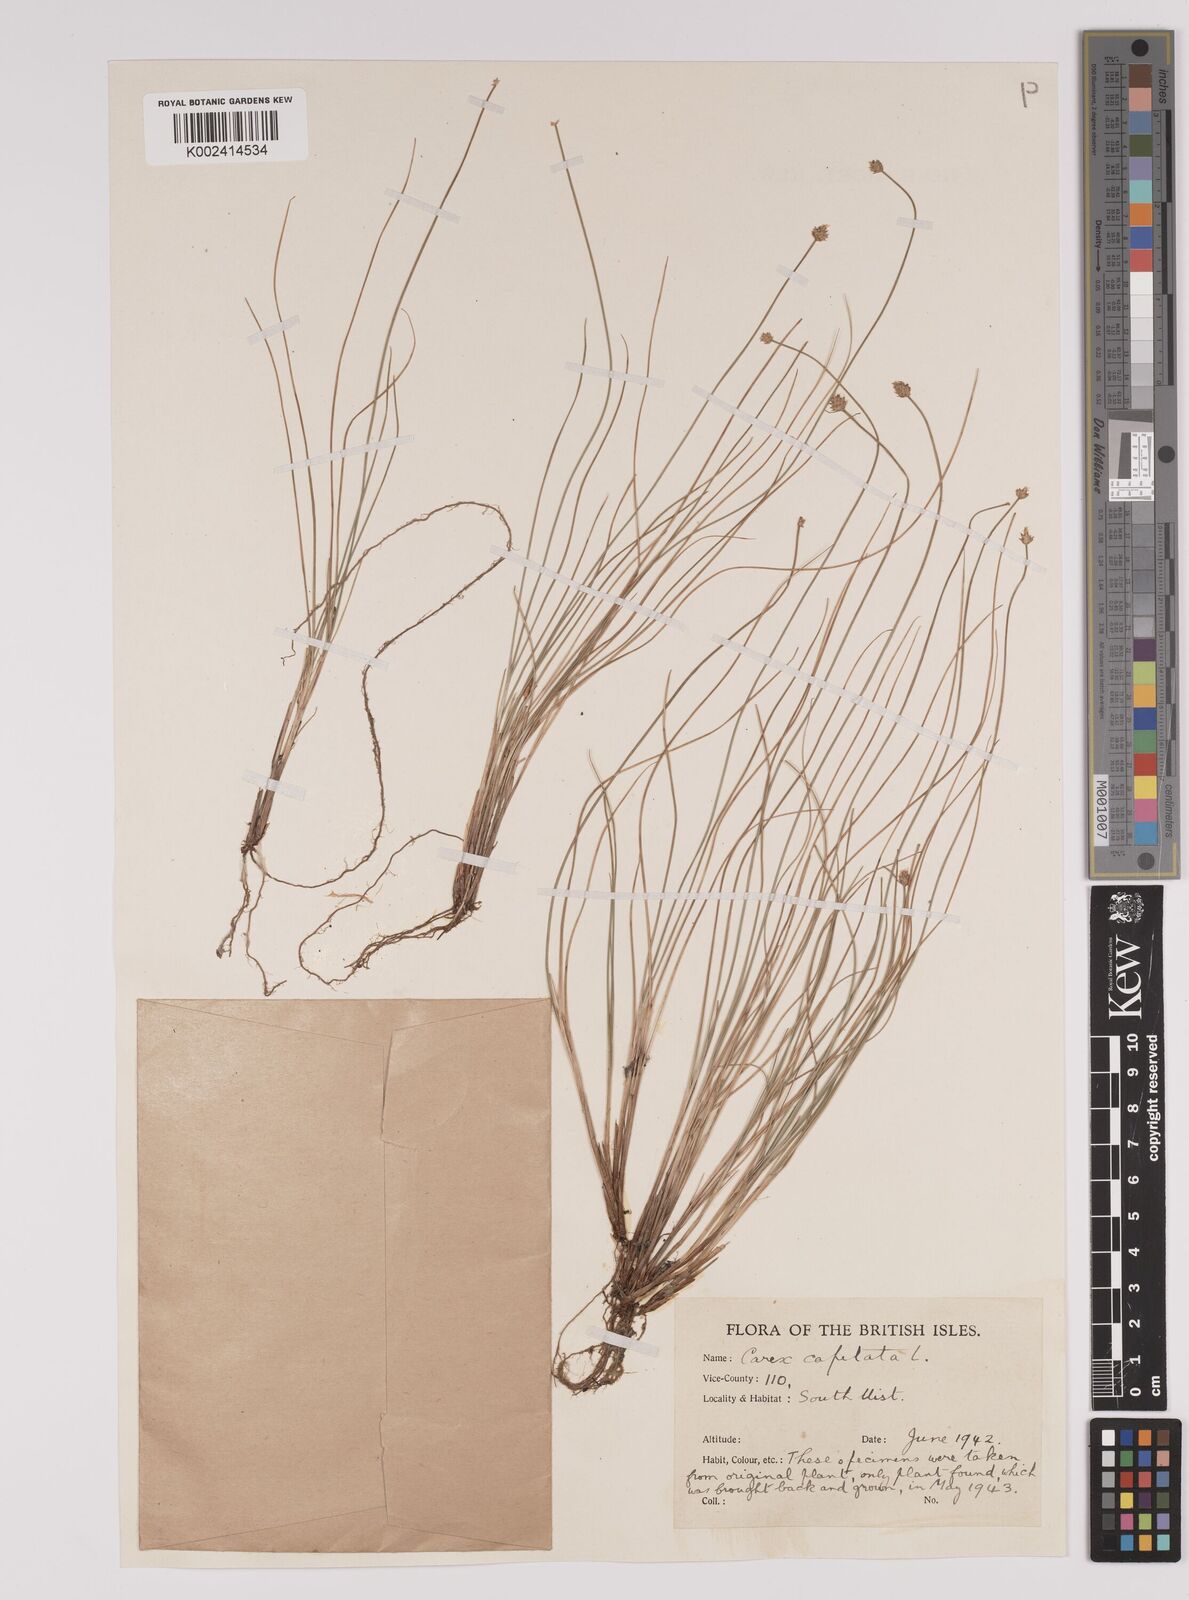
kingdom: Plantae
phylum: Tracheophyta
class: Liliopsida
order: Poales
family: Cyperaceae
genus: Carex
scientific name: Carex capitata
